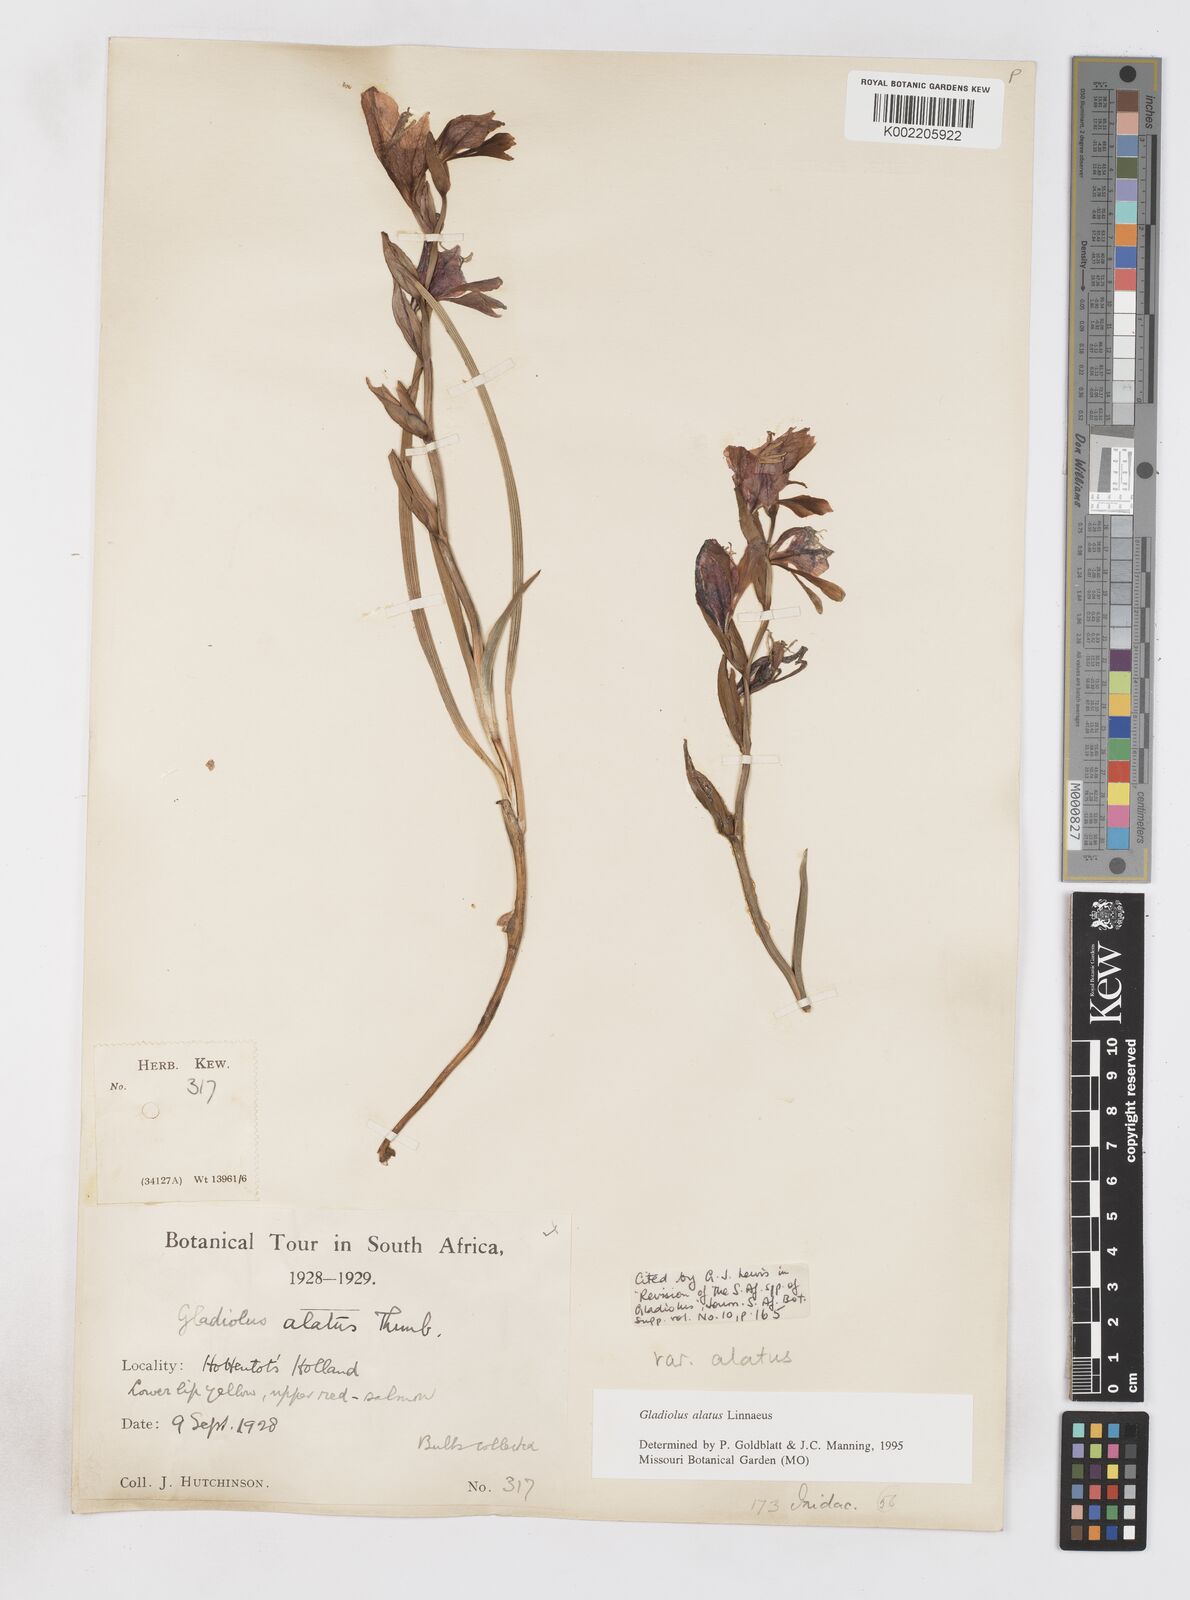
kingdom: Plantae
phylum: Tracheophyta
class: Liliopsida
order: Asparagales
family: Iridaceae
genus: Gladiolus
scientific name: Gladiolus alatus
